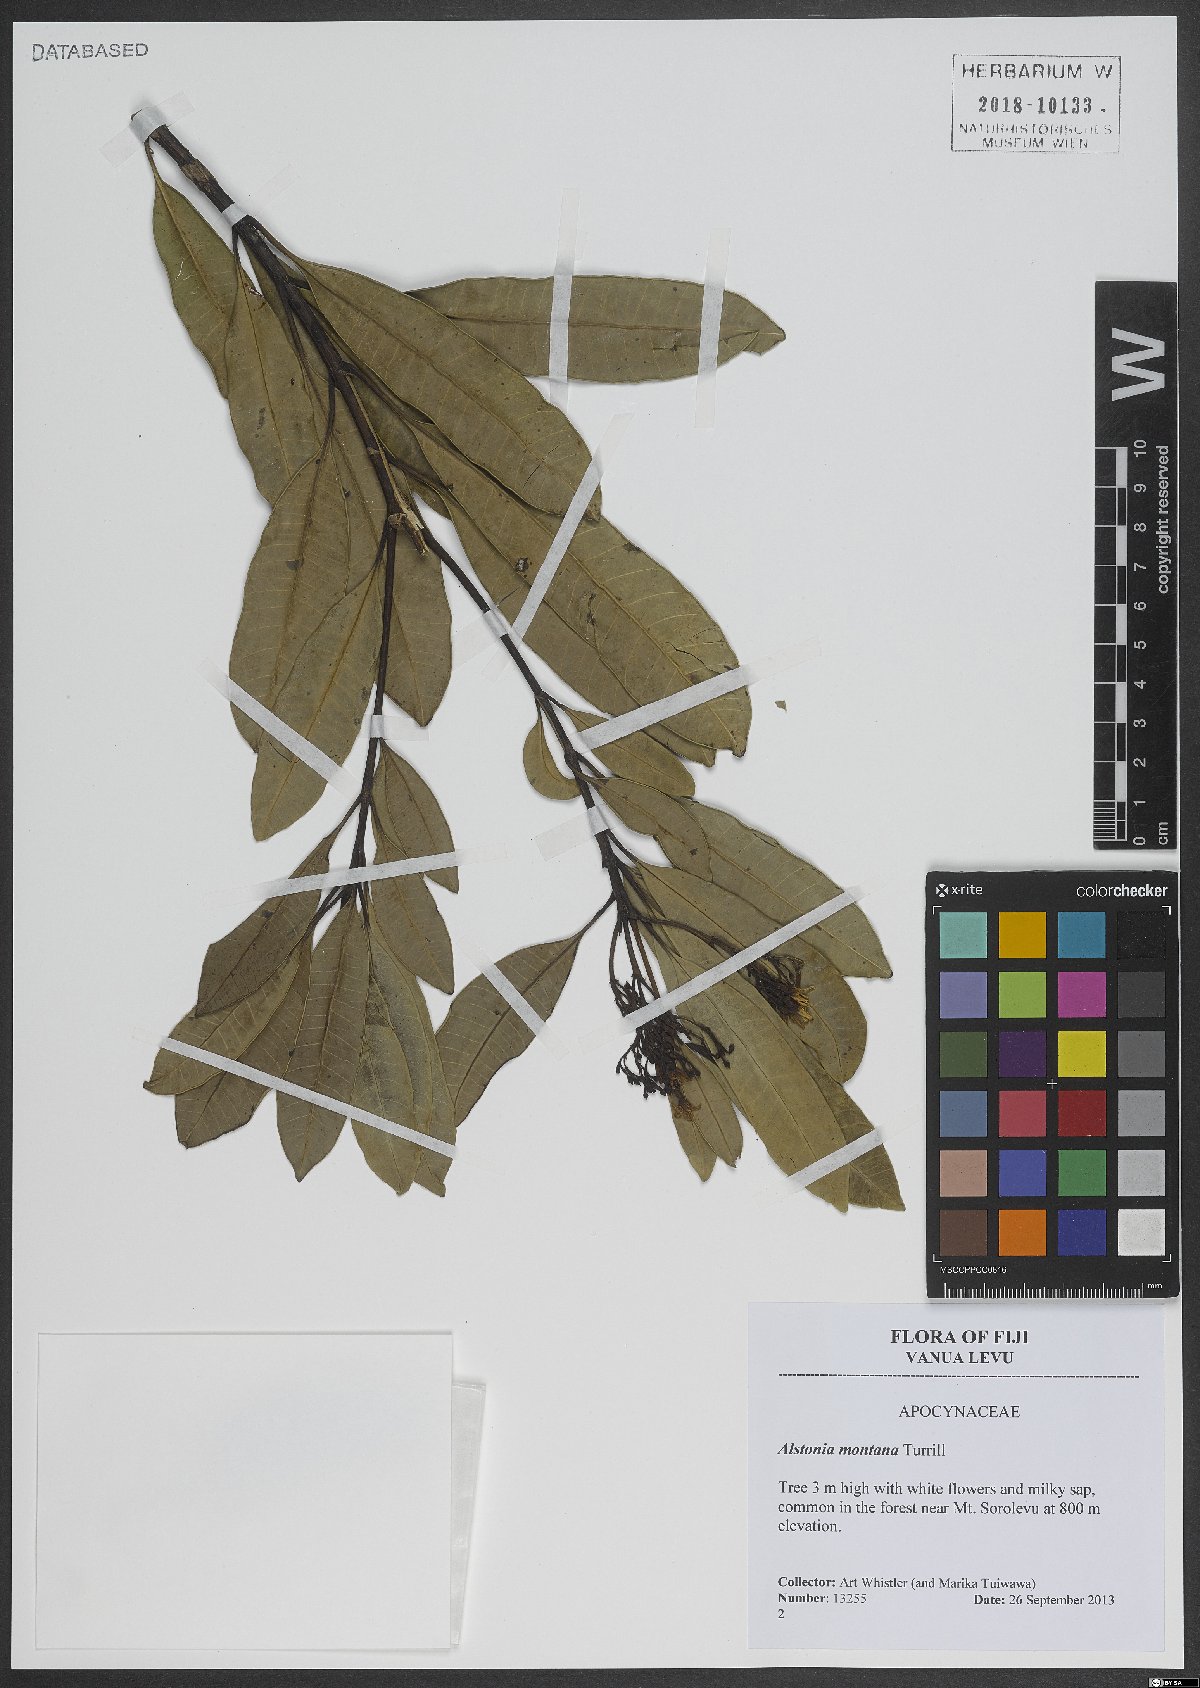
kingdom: Plantae
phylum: Tracheophyta
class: Magnoliopsida
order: Gentianales
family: Apocynaceae
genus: Alstonia
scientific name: Alstonia costata
